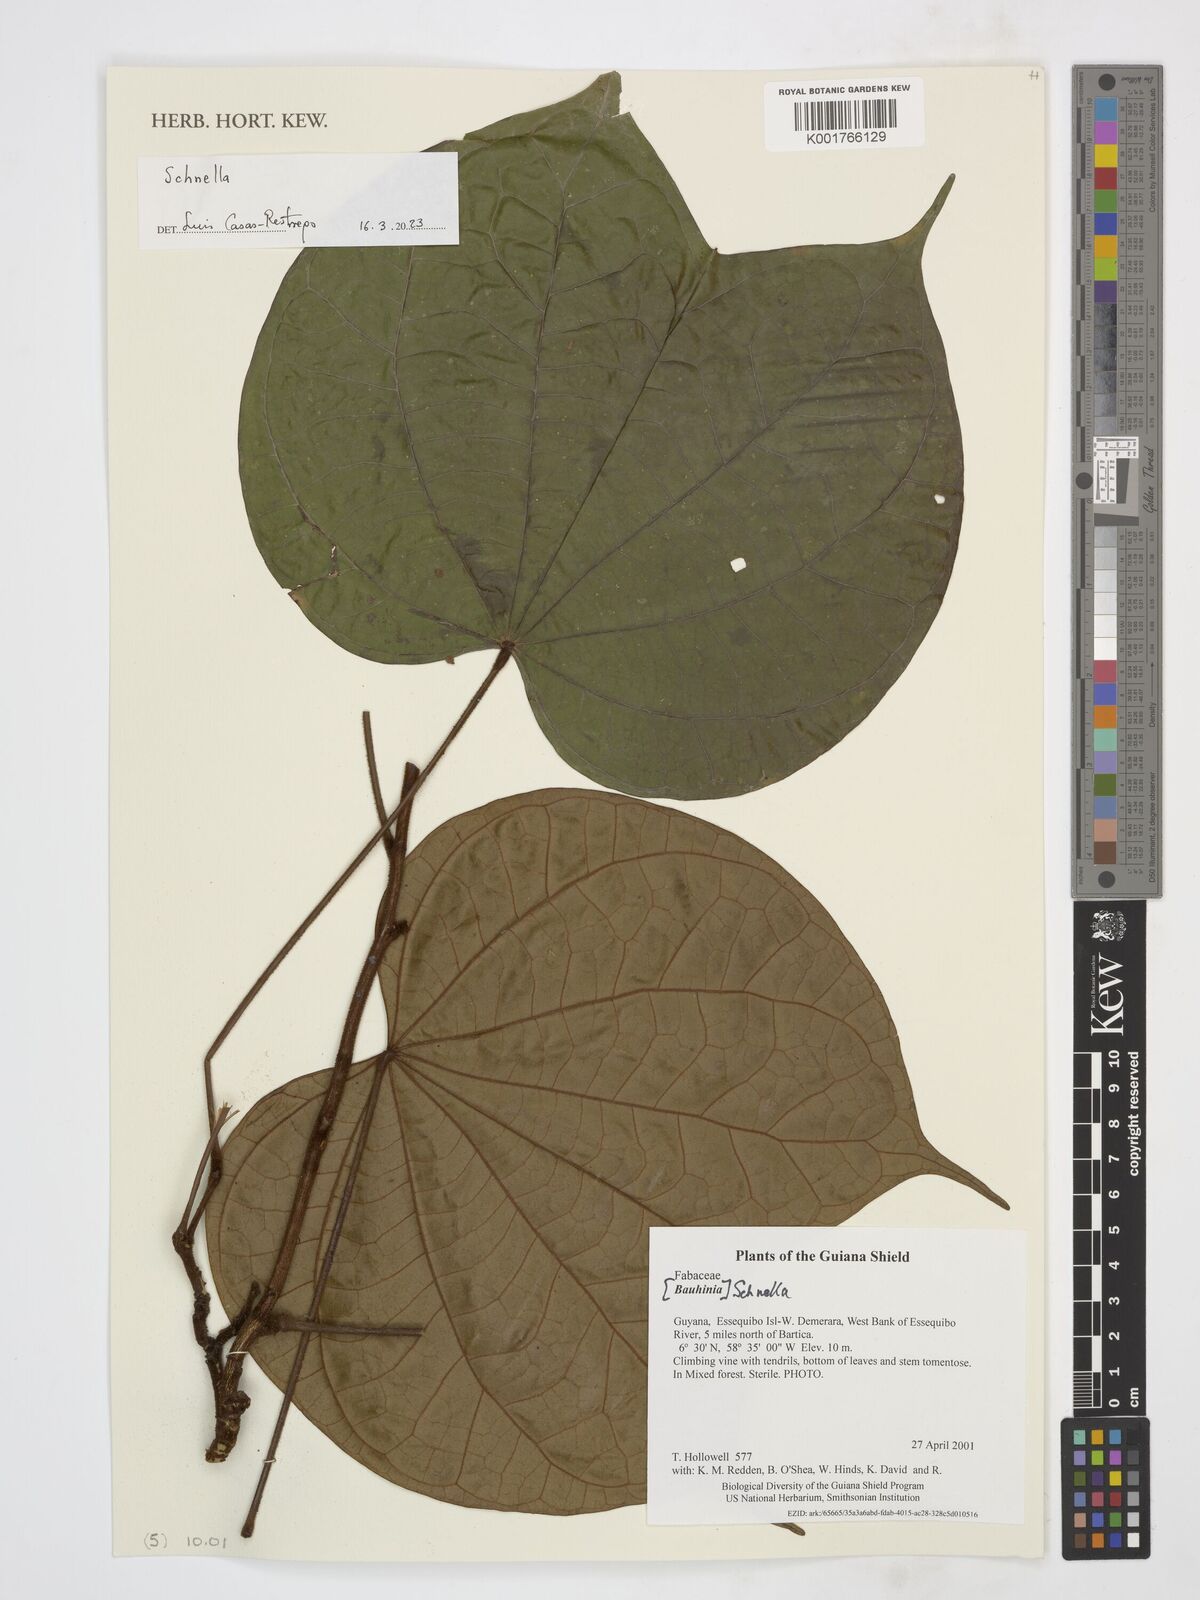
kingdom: Plantae
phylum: Tracheophyta
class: Magnoliopsida
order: Fabales
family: Fabaceae
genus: Schnella
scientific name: Schnella
